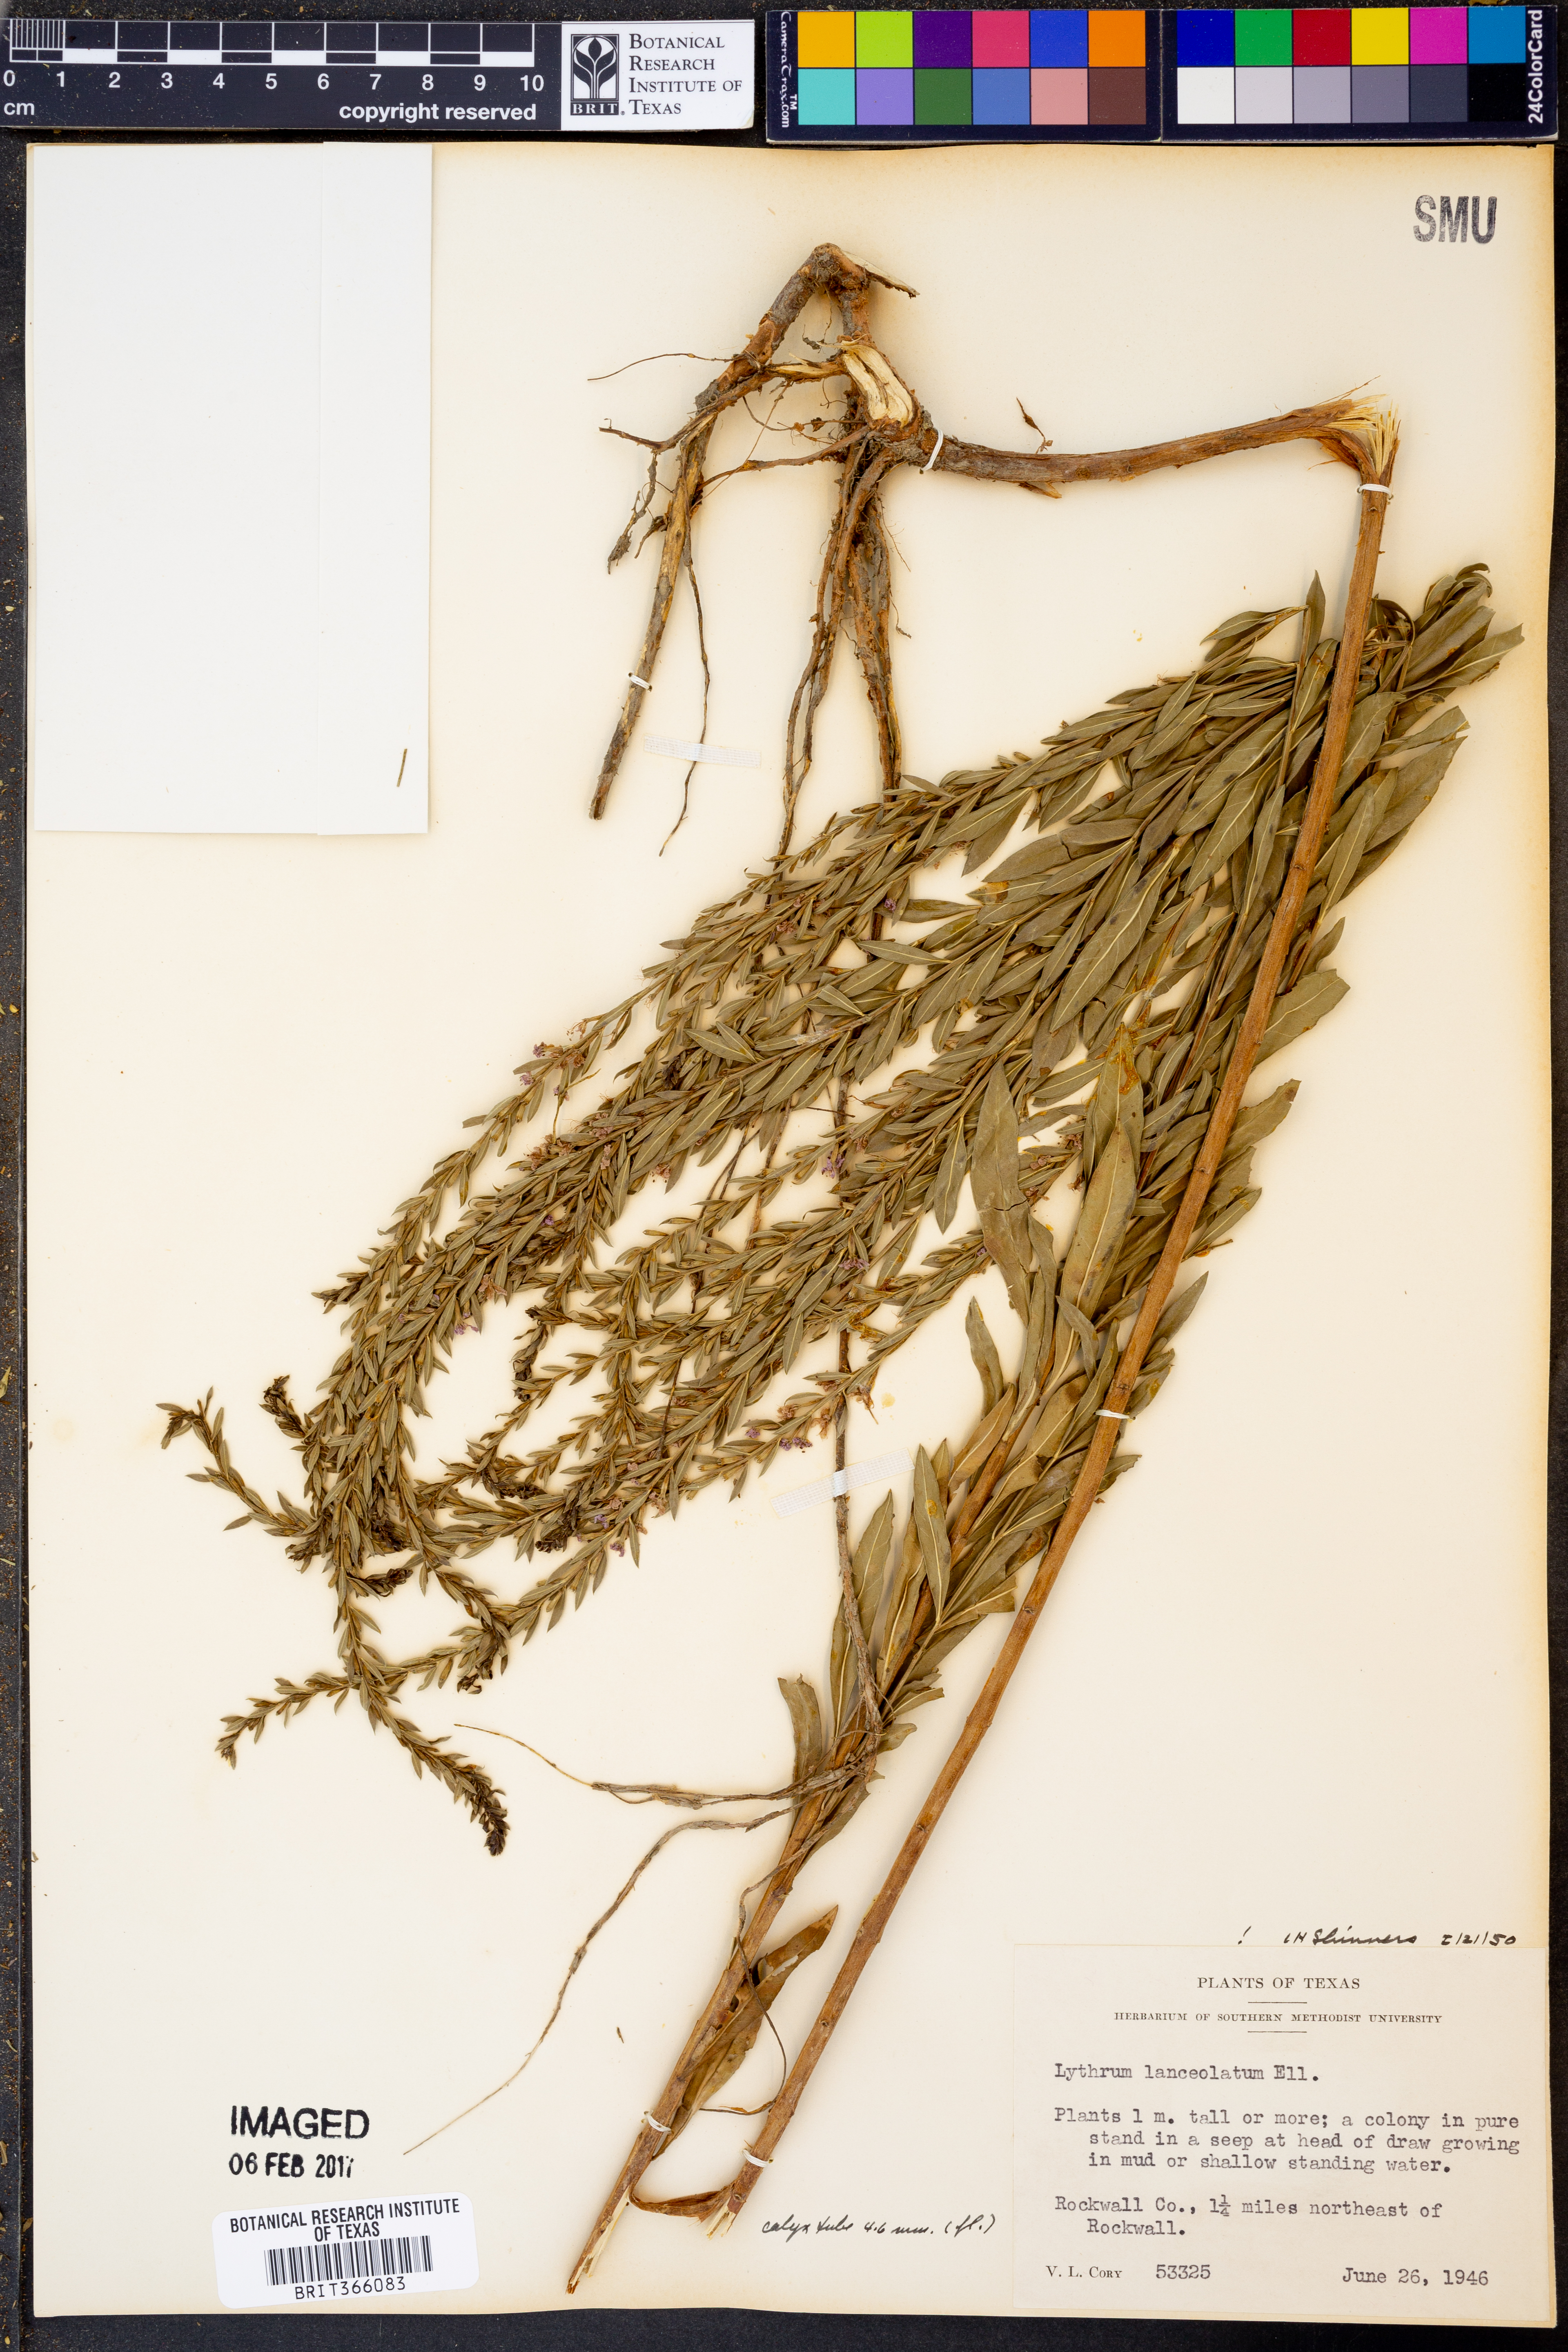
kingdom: Plantae
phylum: Tracheophyta
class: Magnoliopsida
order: Myrtales
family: Lythraceae
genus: Lythrum
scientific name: Lythrum alatum
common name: Winged loosestrife
